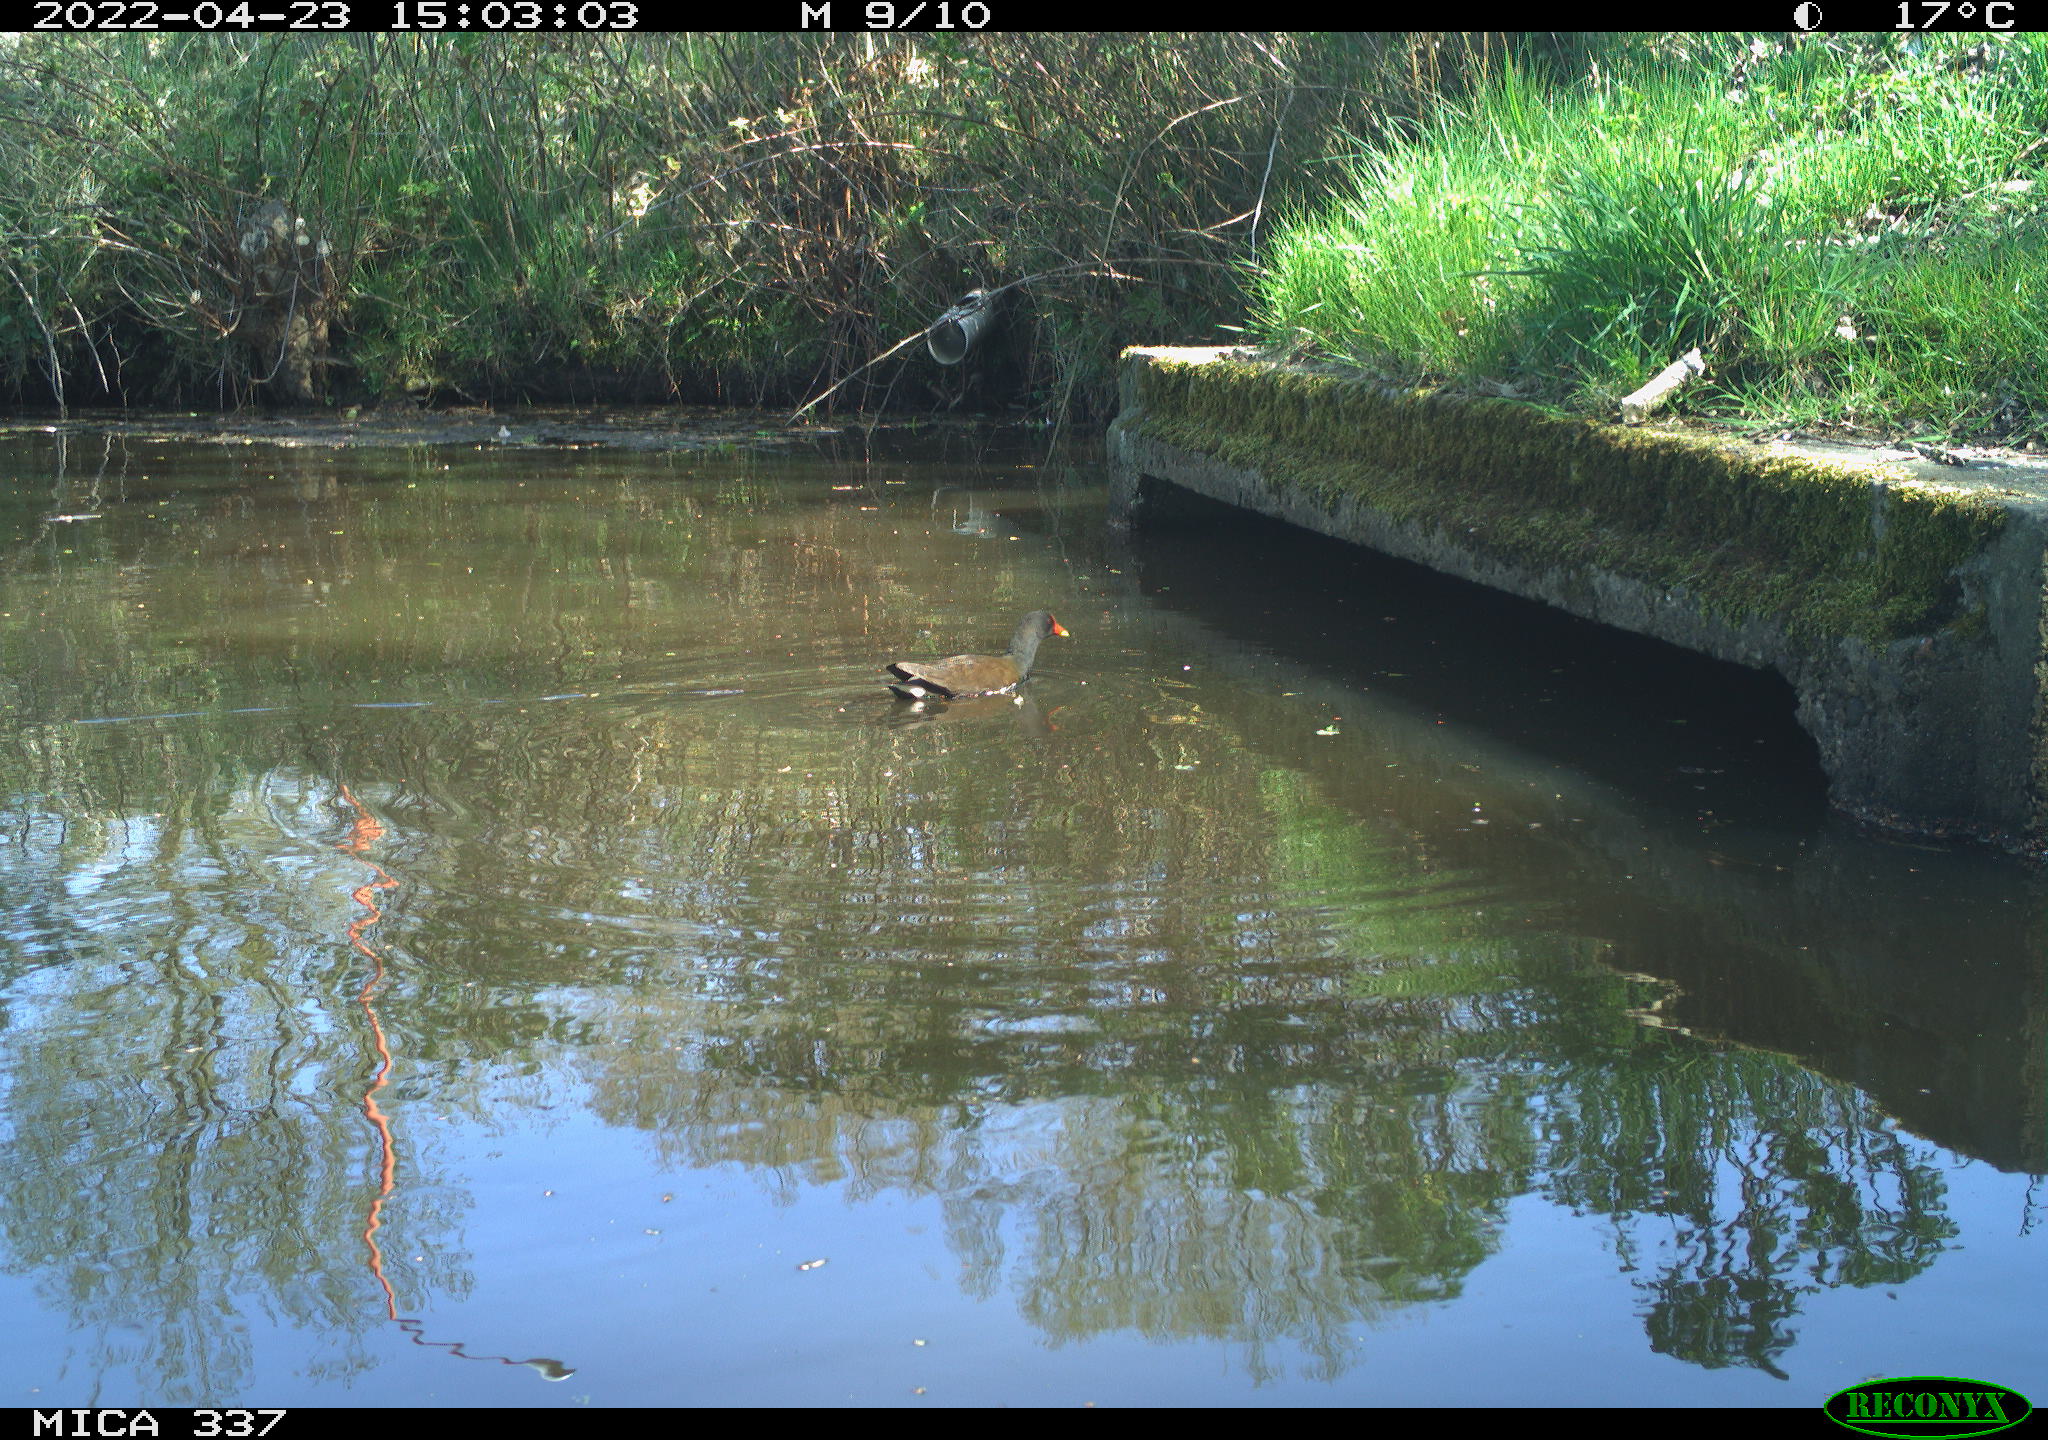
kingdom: Animalia
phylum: Chordata
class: Aves
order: Gruiformes
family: Rallidae
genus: Gallinula
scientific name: Gallinula chloropus
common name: Common moorhen
